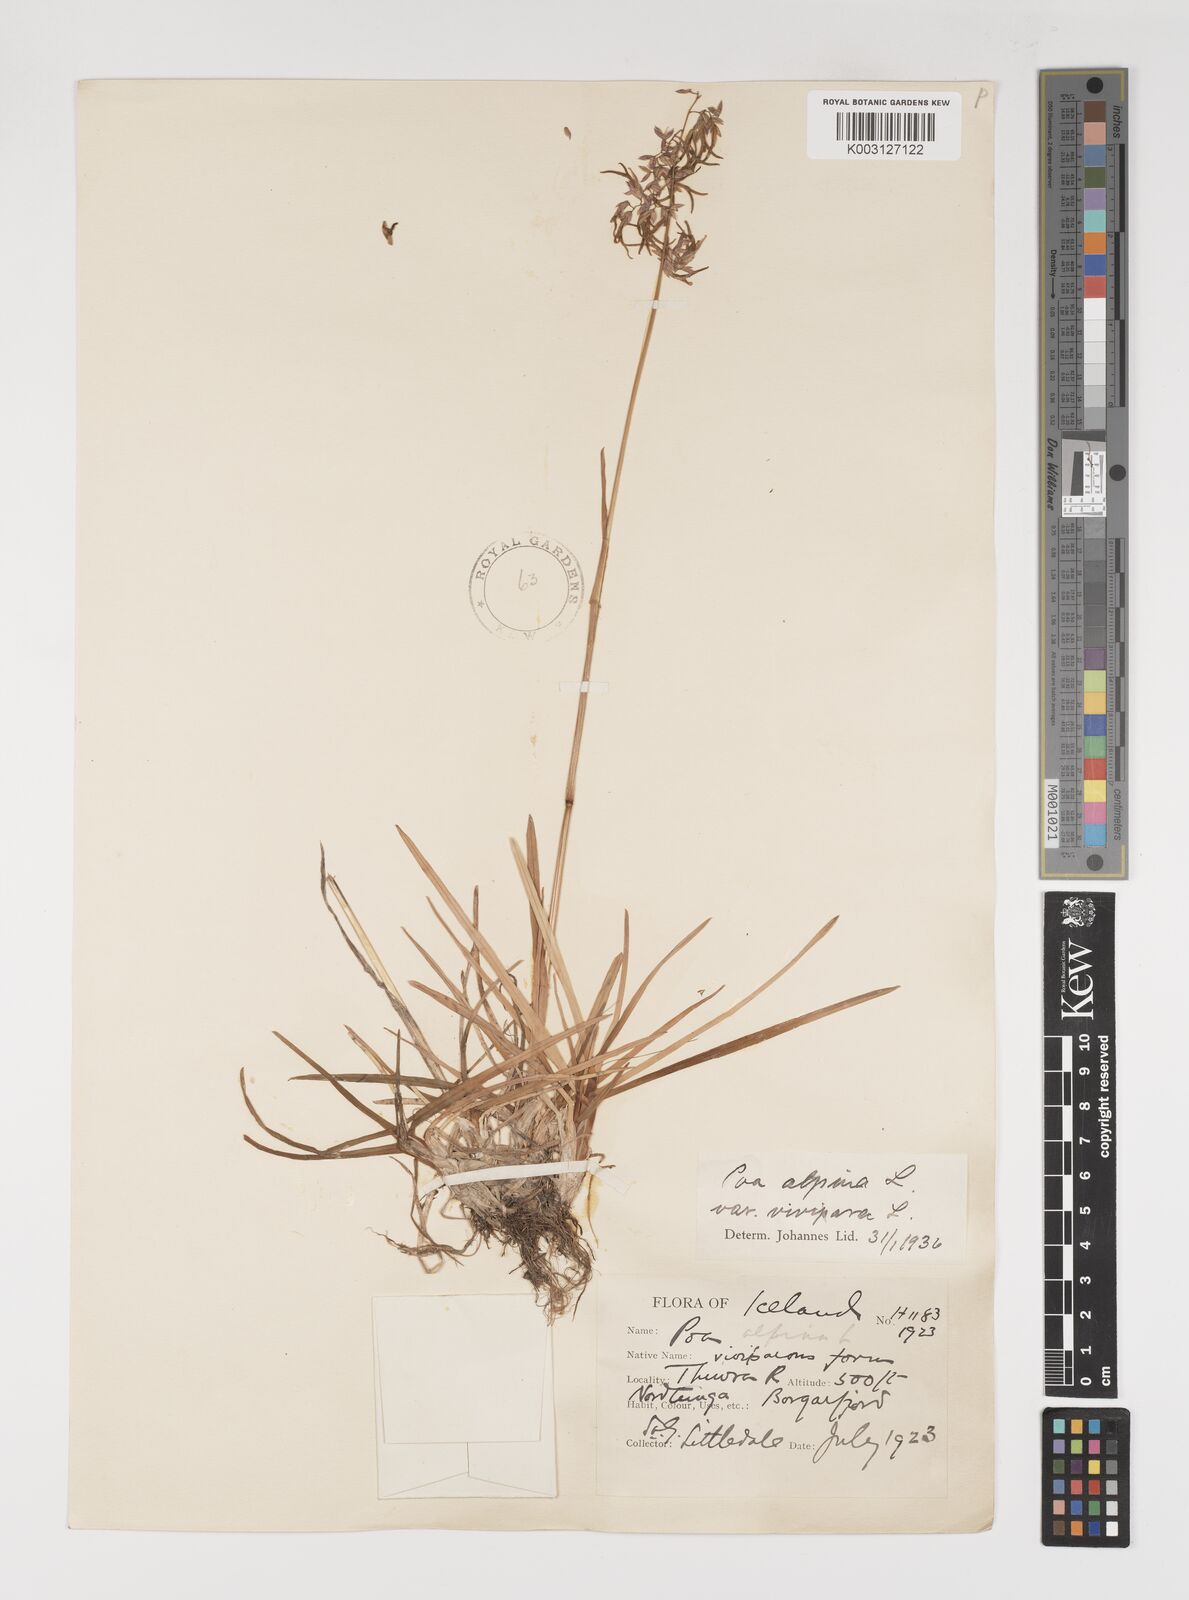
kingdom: Plantae
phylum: Tracheophyta
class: Liliopsida
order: Poales
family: Poaceae
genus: Poa
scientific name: Poa alpina
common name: Alpine bluegrass
